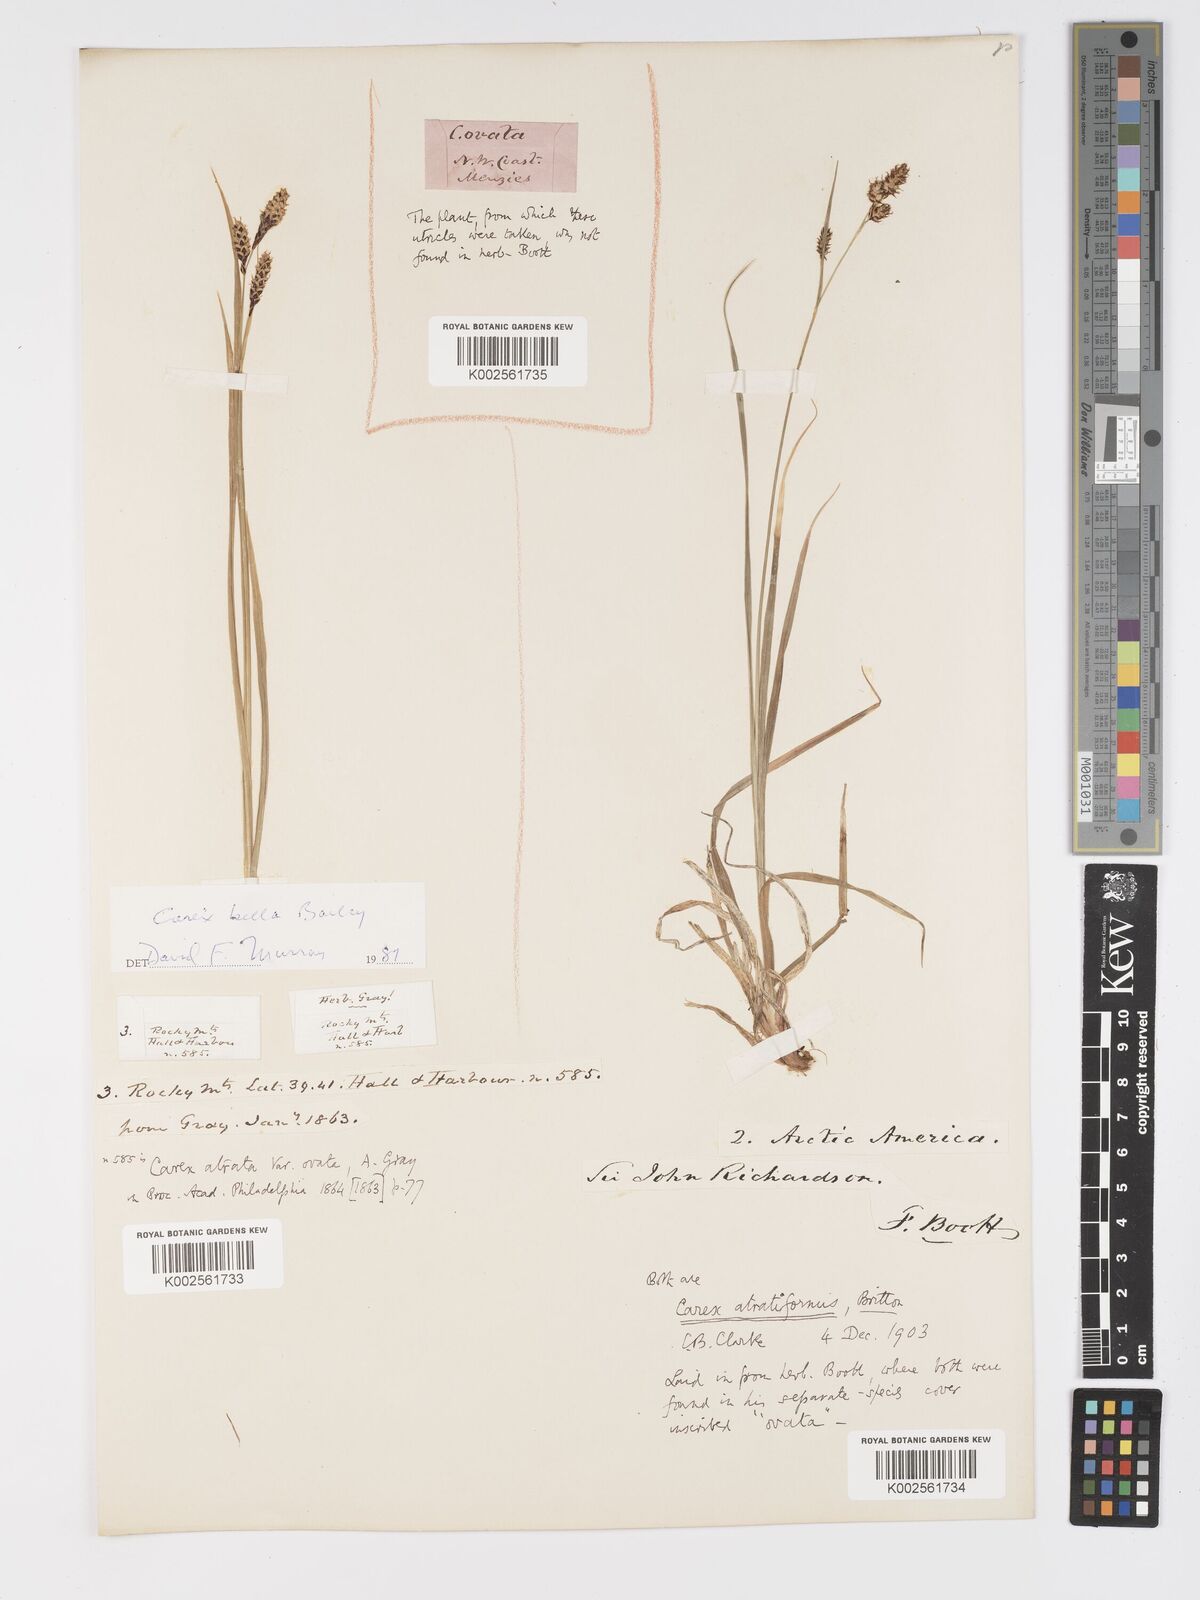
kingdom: Plantae
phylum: Tracheophyta
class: Liliopsida
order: Poales
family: Cyperaceae
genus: Carex
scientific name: Carex atratiformis
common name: Black sedge
